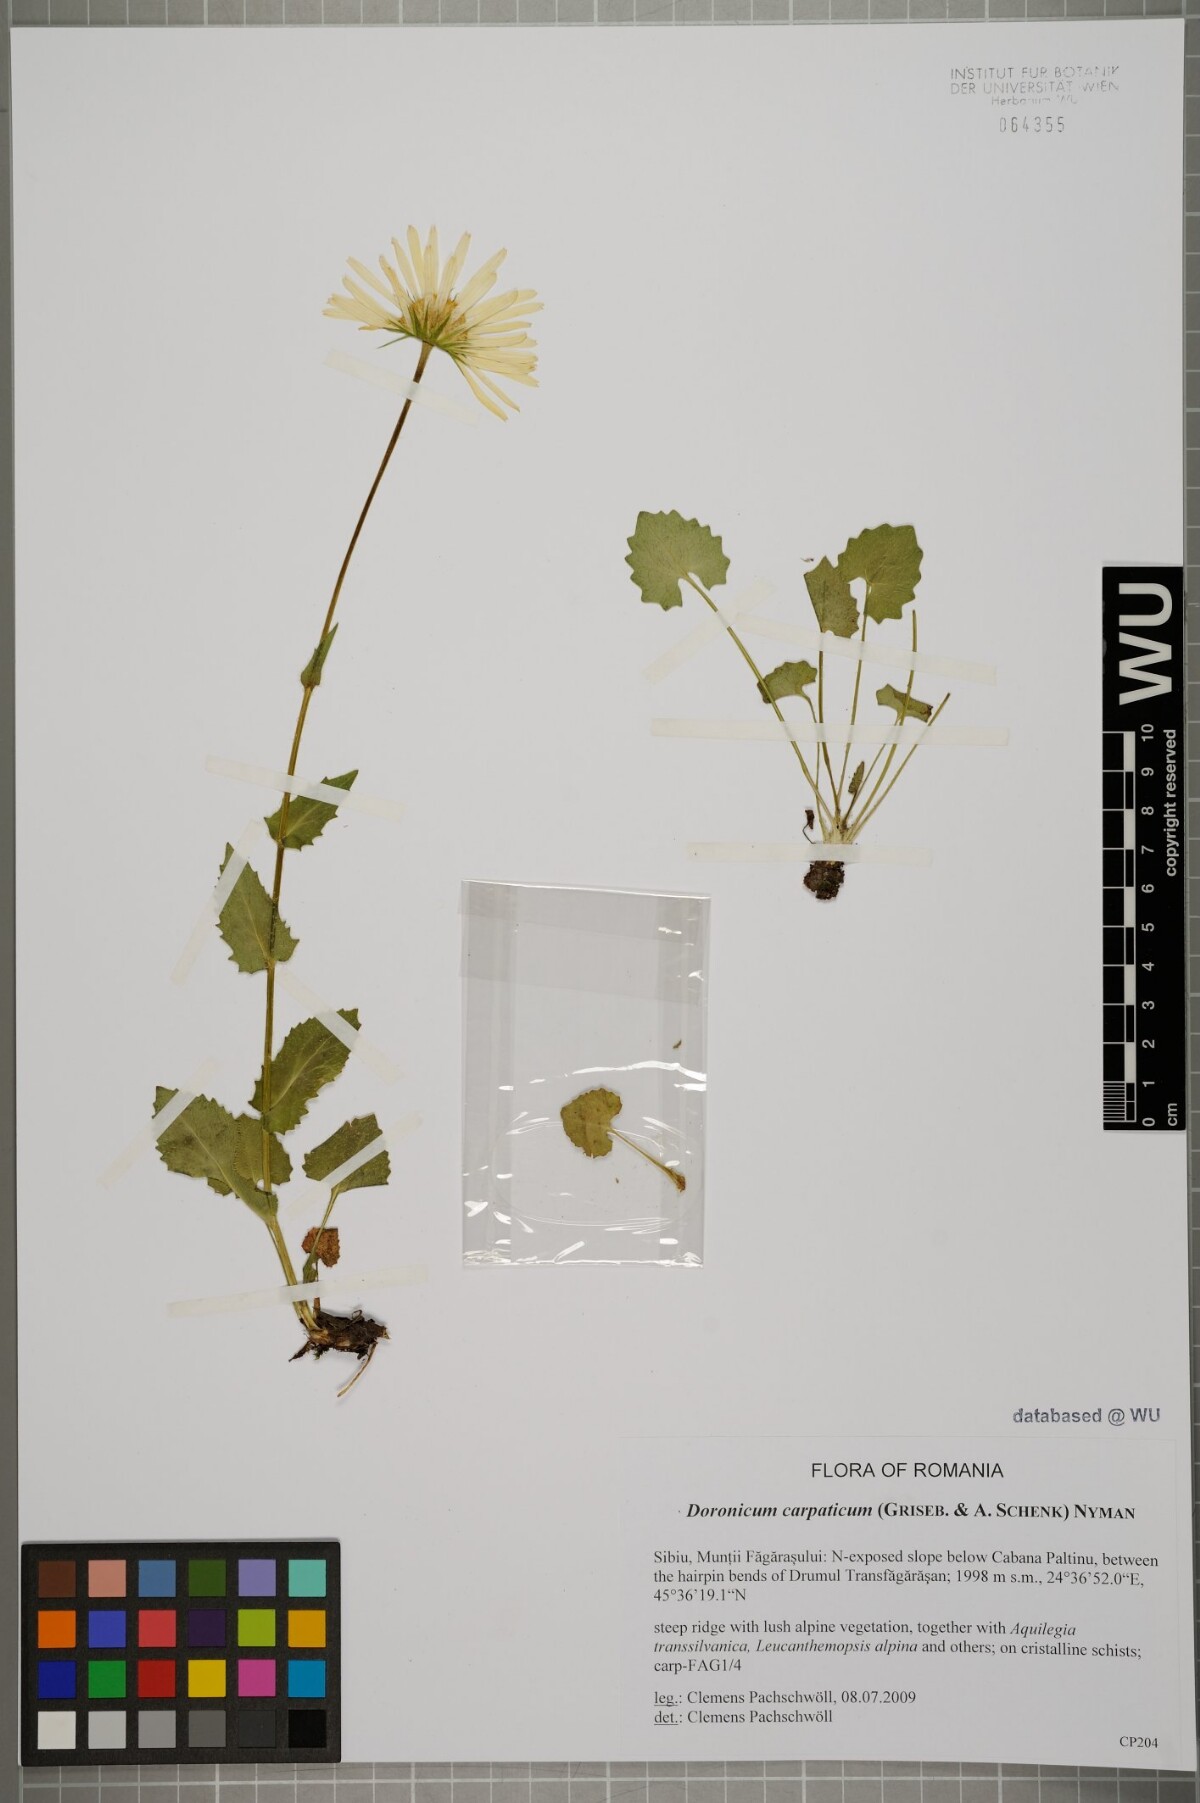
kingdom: Plantae
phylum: Tracheophyta
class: Magnoliopsida
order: Asterales
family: Asteraceae
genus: Doronicum
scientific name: Doronicum carpaticum
